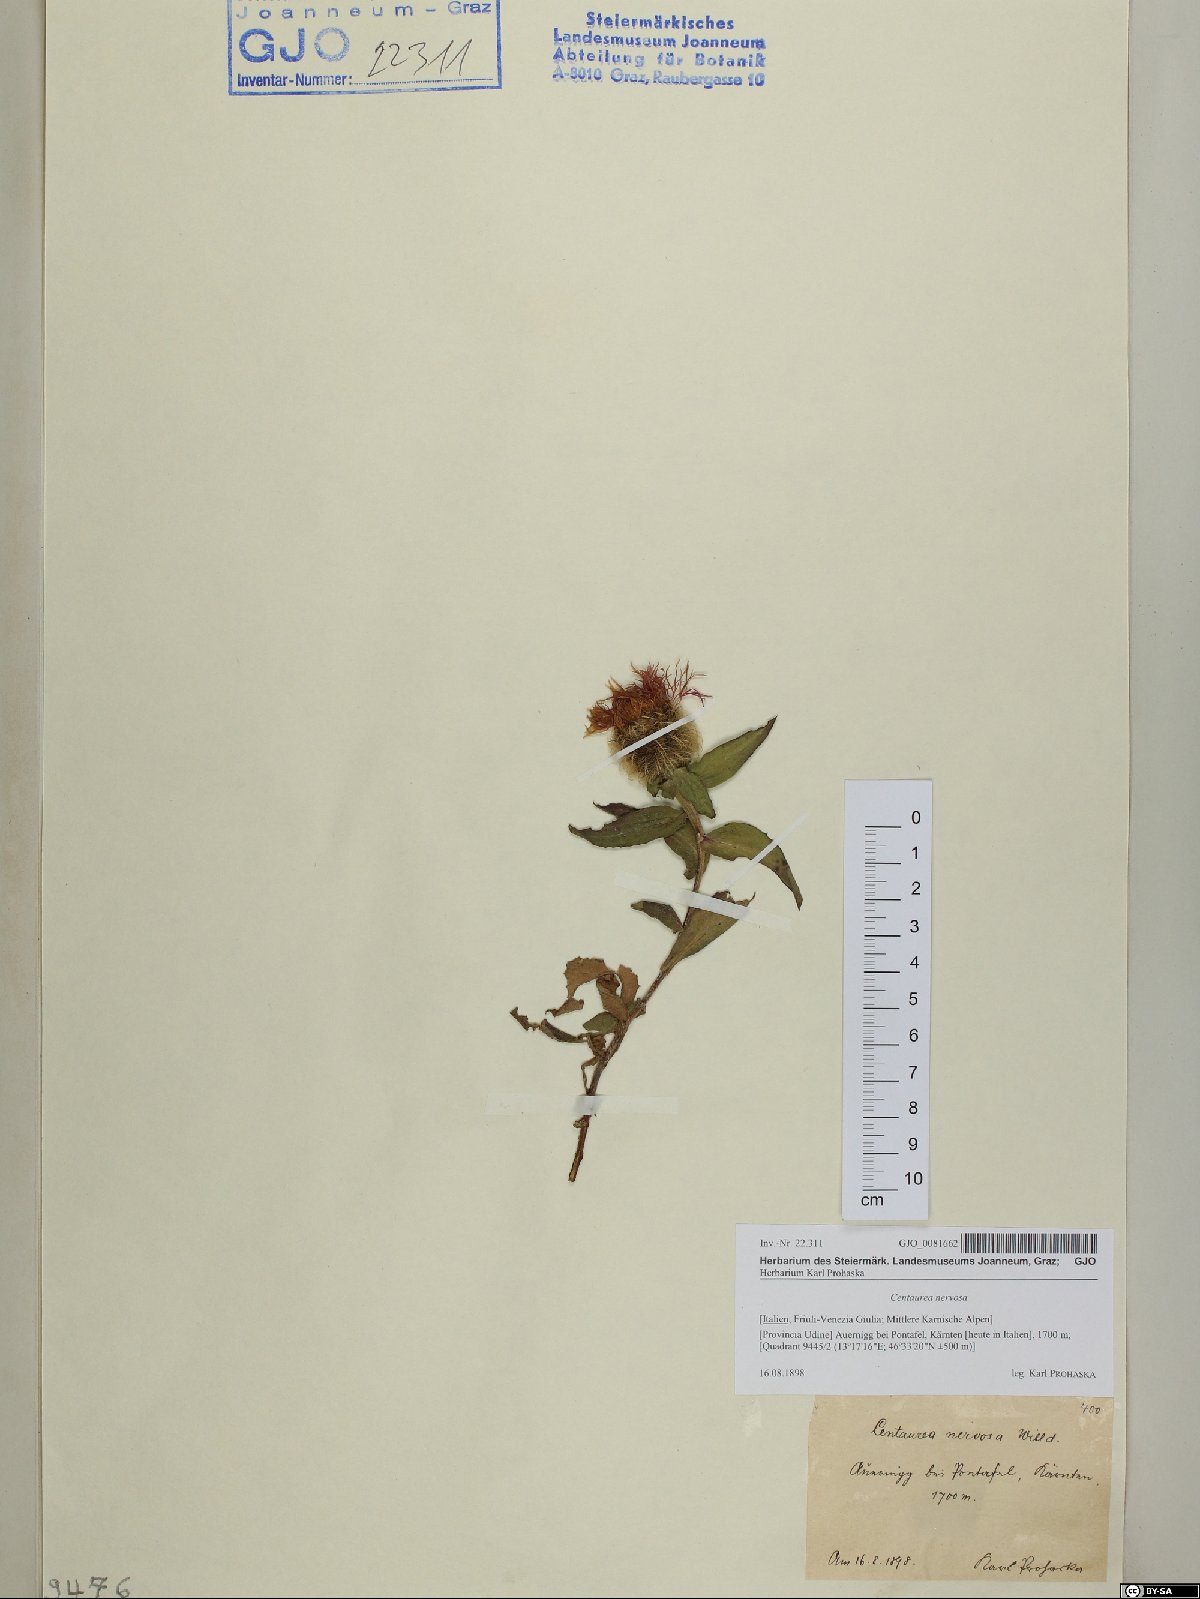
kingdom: Plantae
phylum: Tracheophyta
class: Magnoliopsida
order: Asterales
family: Asteraceae
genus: Centaurea
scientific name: Centaurea nervosa
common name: Singleflower knapweed
